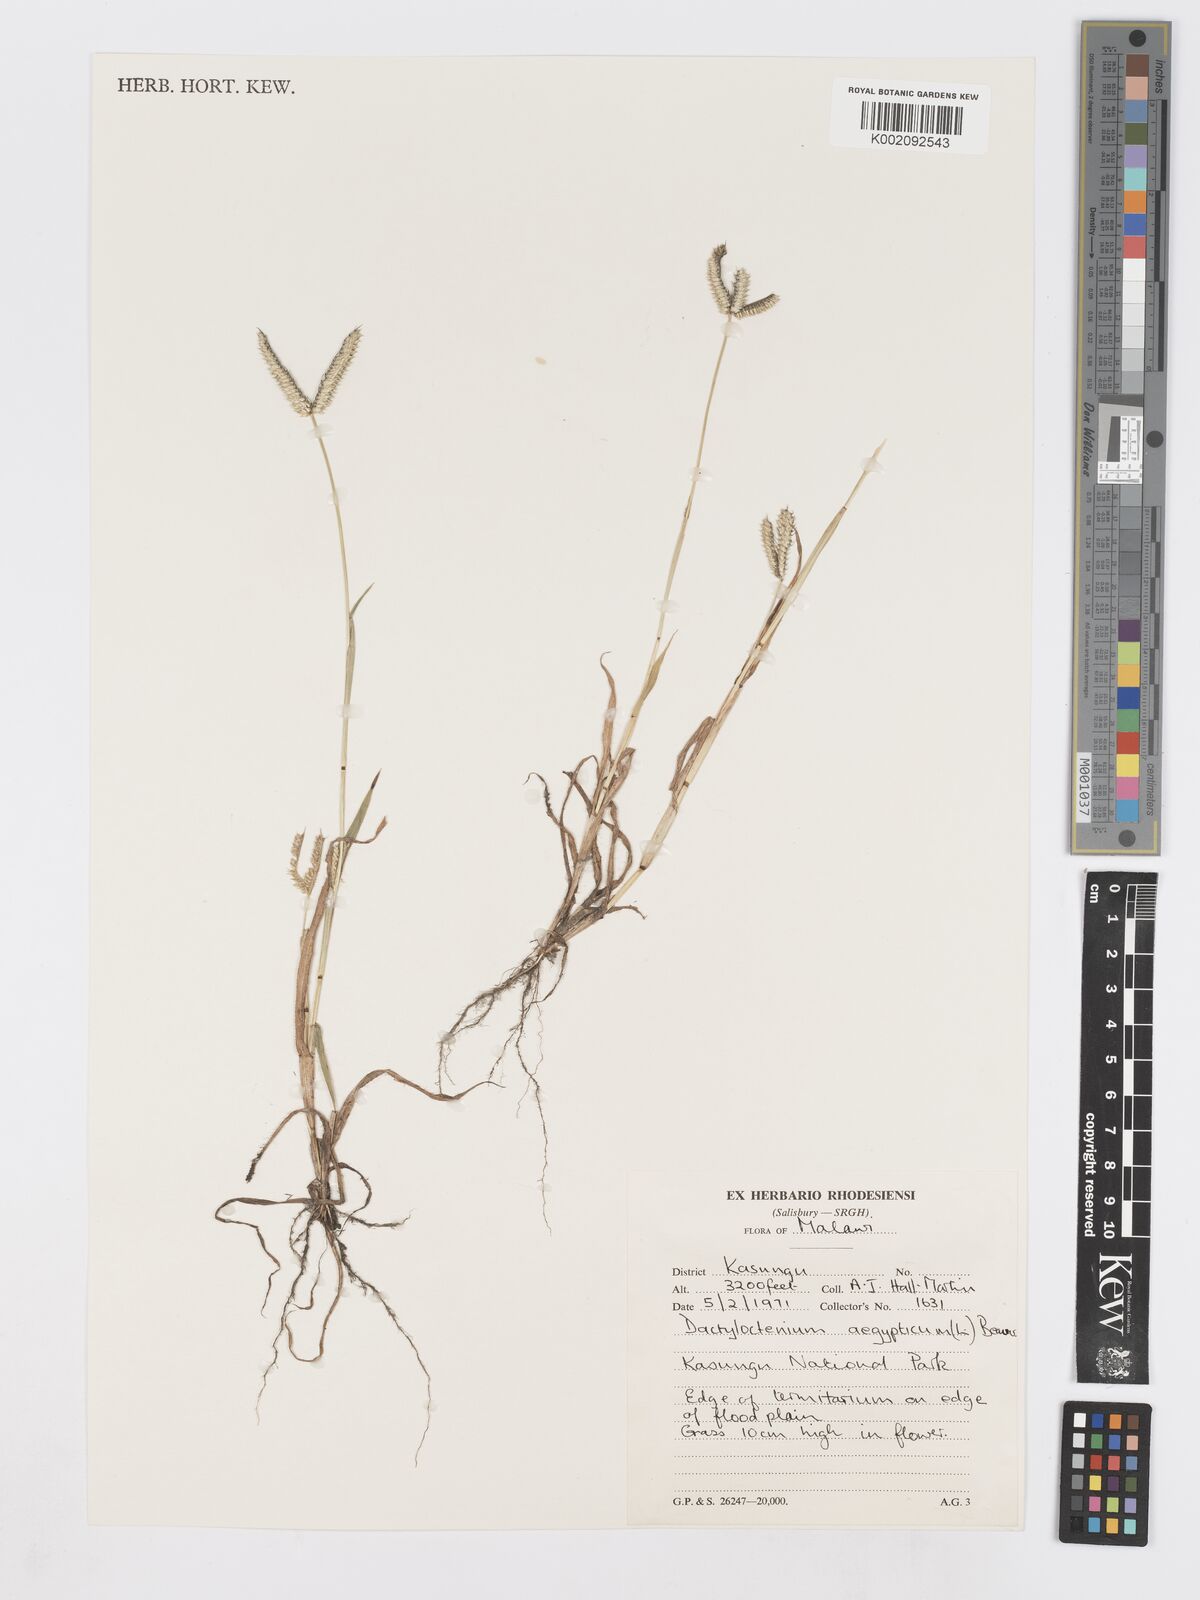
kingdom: Plantae
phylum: Tracheophyta
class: Liliopsida
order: Poales
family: Poaceae
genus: Dactyloctenium
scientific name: Dactyloctenium aegyptium
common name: Egyptian grass
